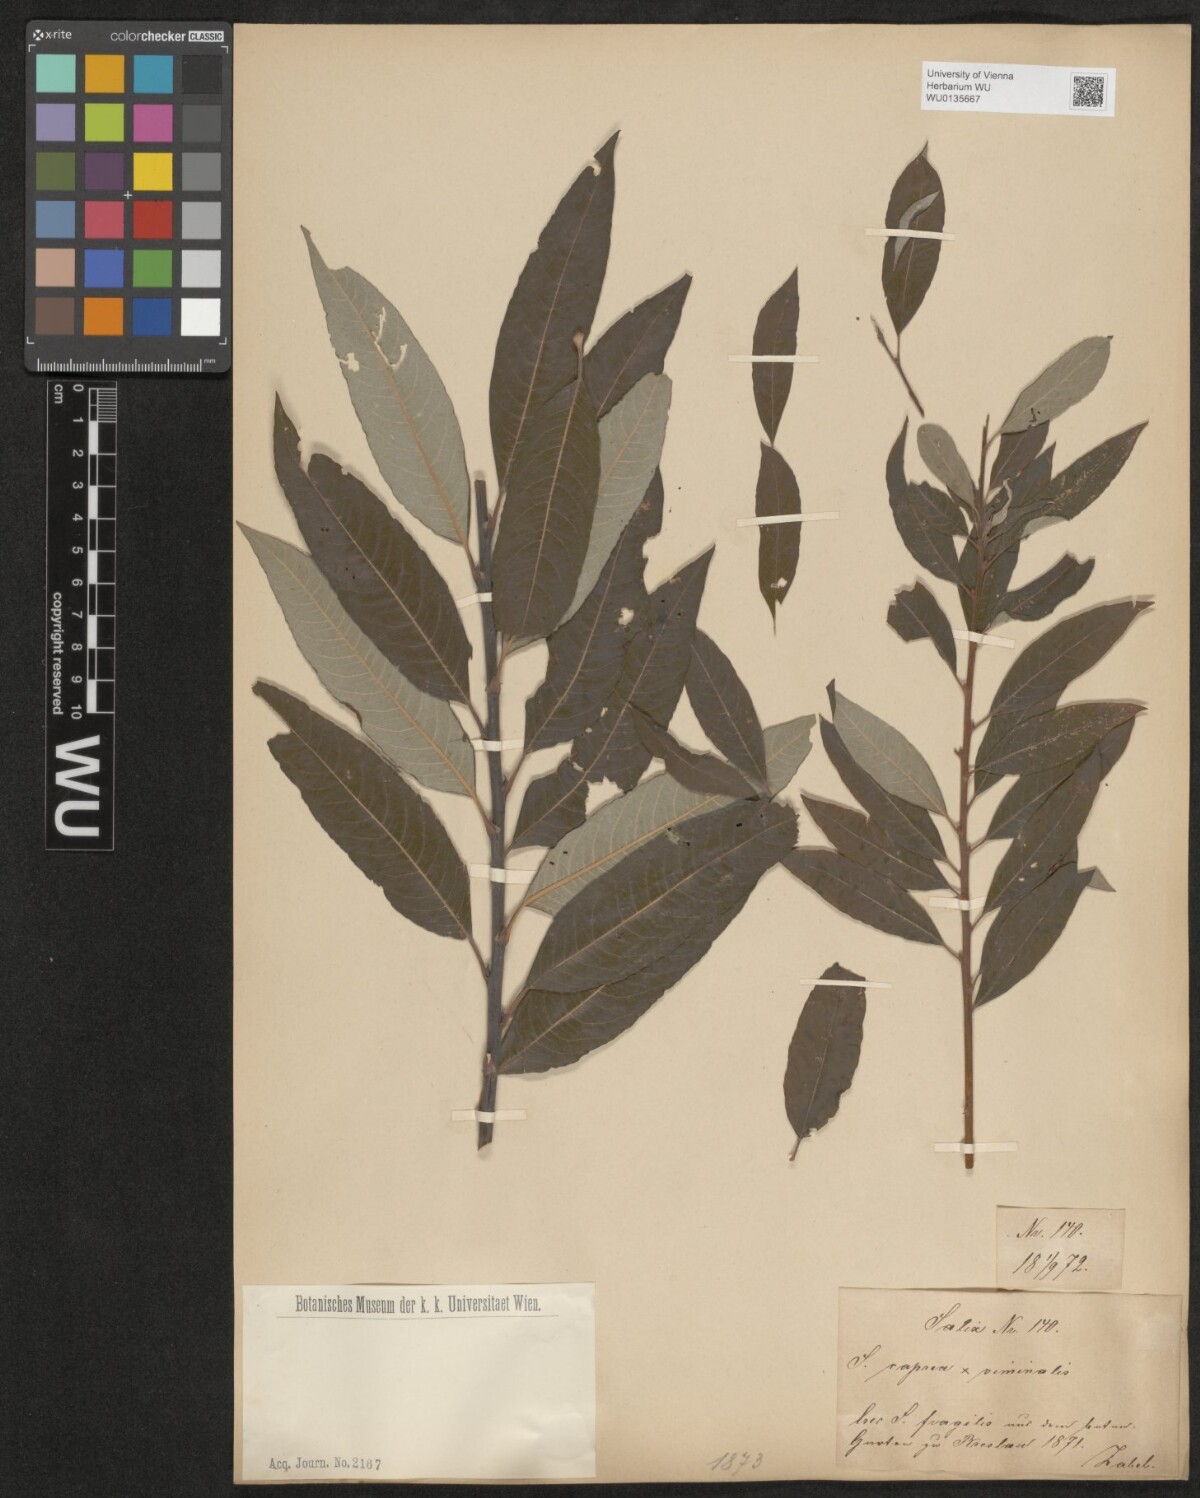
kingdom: Plantae
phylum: Tracheophyta
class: Magnoliopsida
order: Malpighiales
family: Salicaceae
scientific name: Salicaceae
